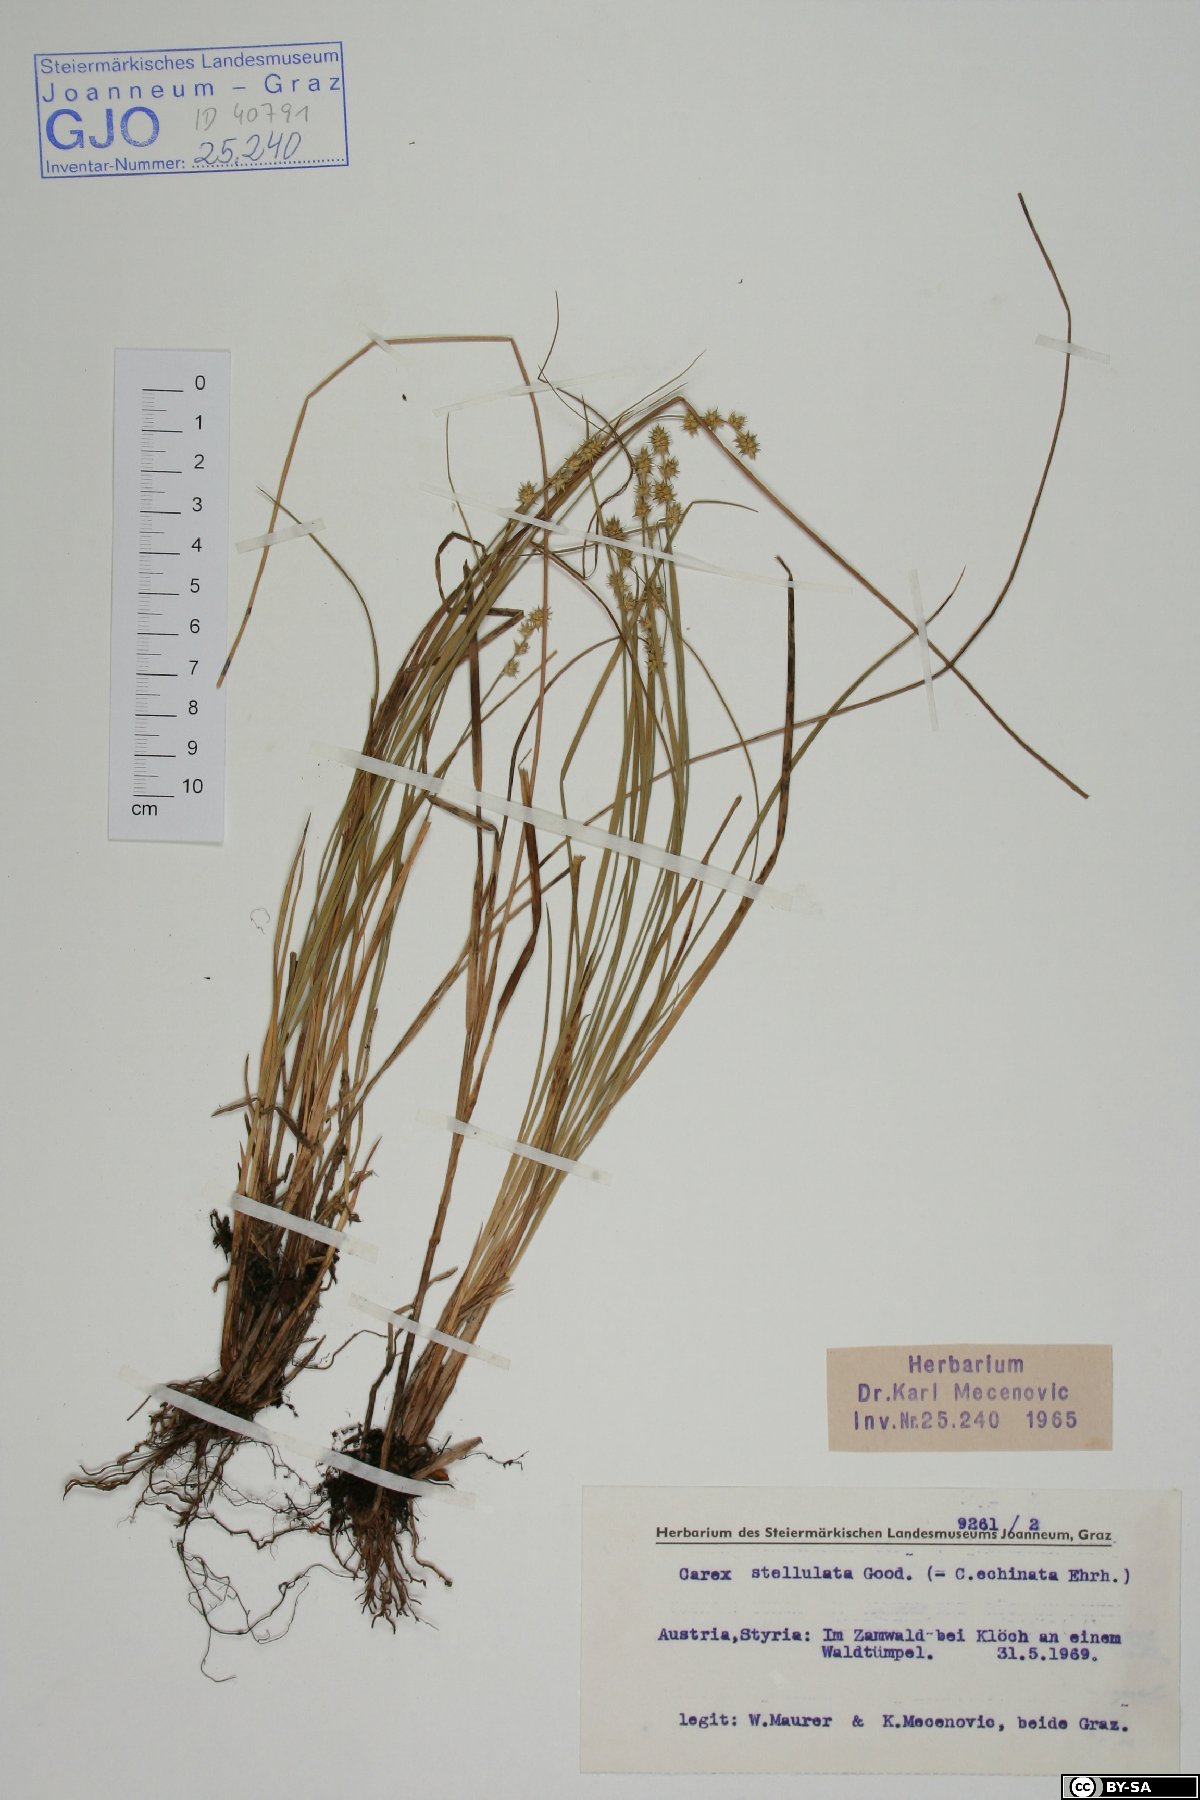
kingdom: Plantae
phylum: Tracheophyta
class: Liliopsida
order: Poales
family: Cyperaceae
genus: Carex
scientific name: Carex echinata
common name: Star sedge
